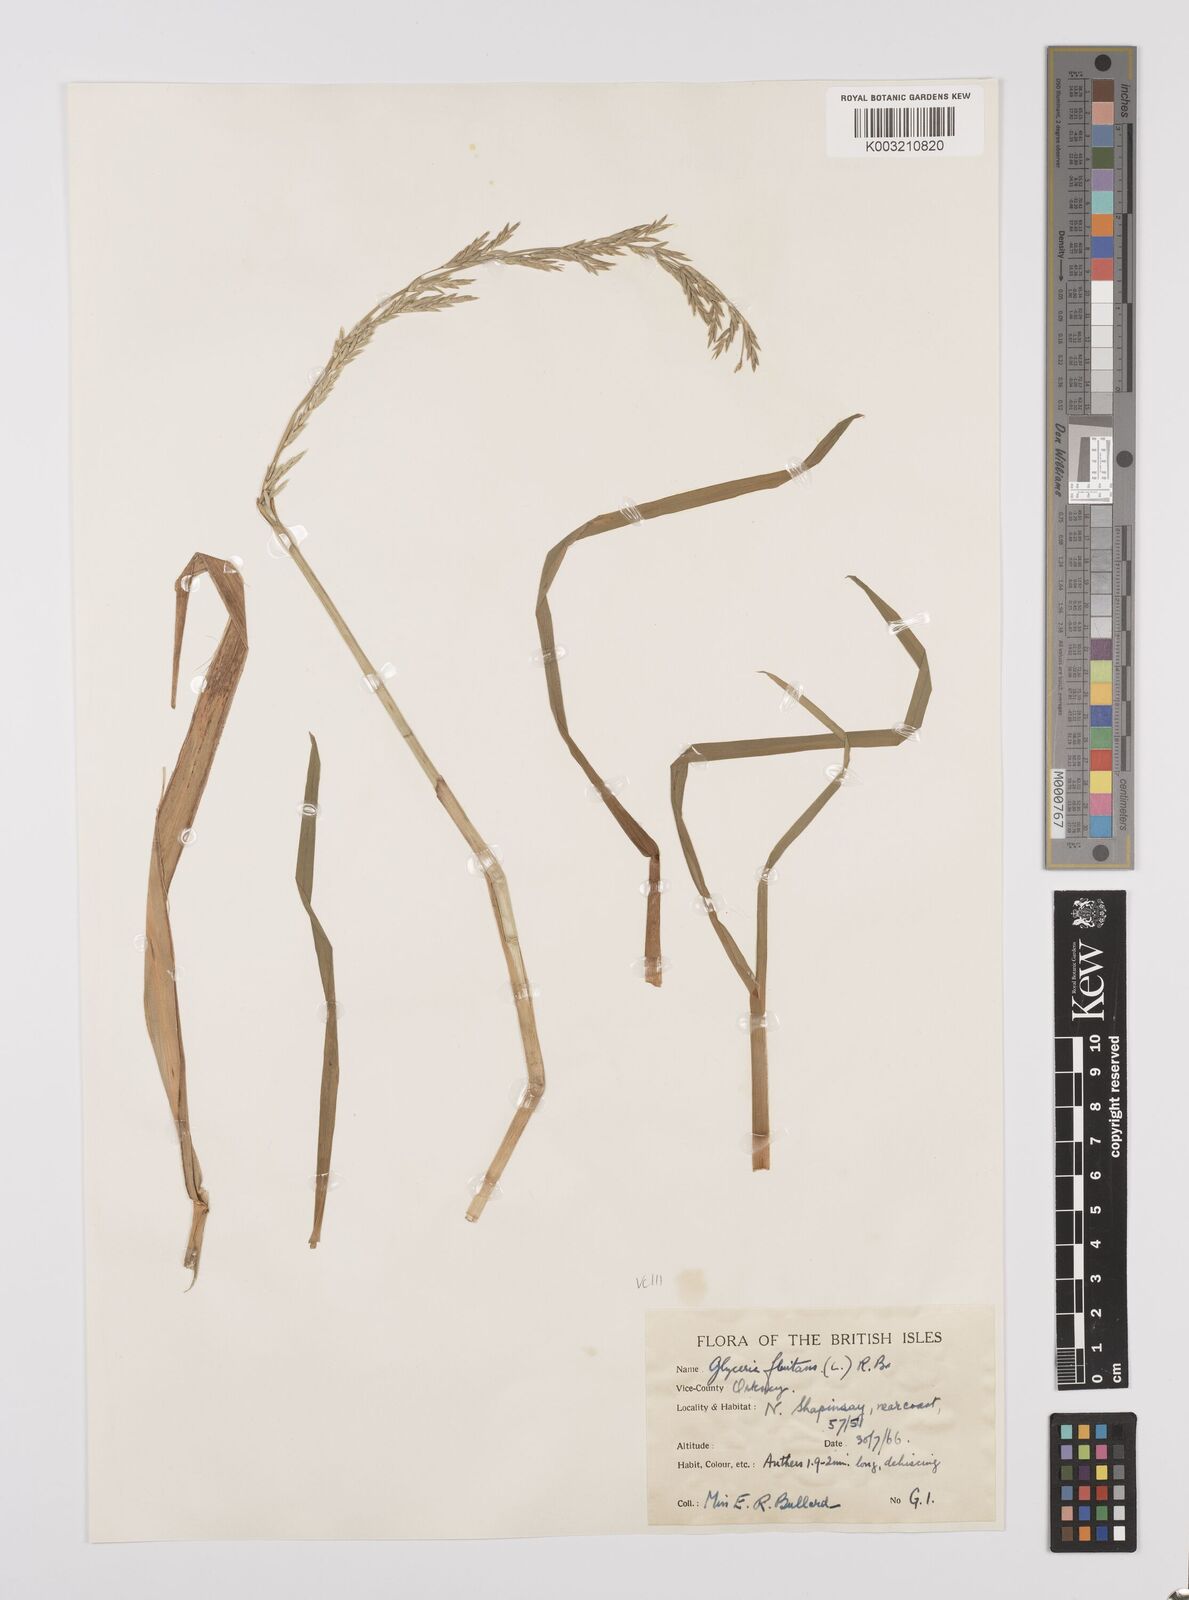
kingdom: Plantae
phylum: Tracheophyta
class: Liliopsida
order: Poales
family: Poaceae
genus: Glyceria
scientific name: Glyceria fluitans
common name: Floating sweet-grass
